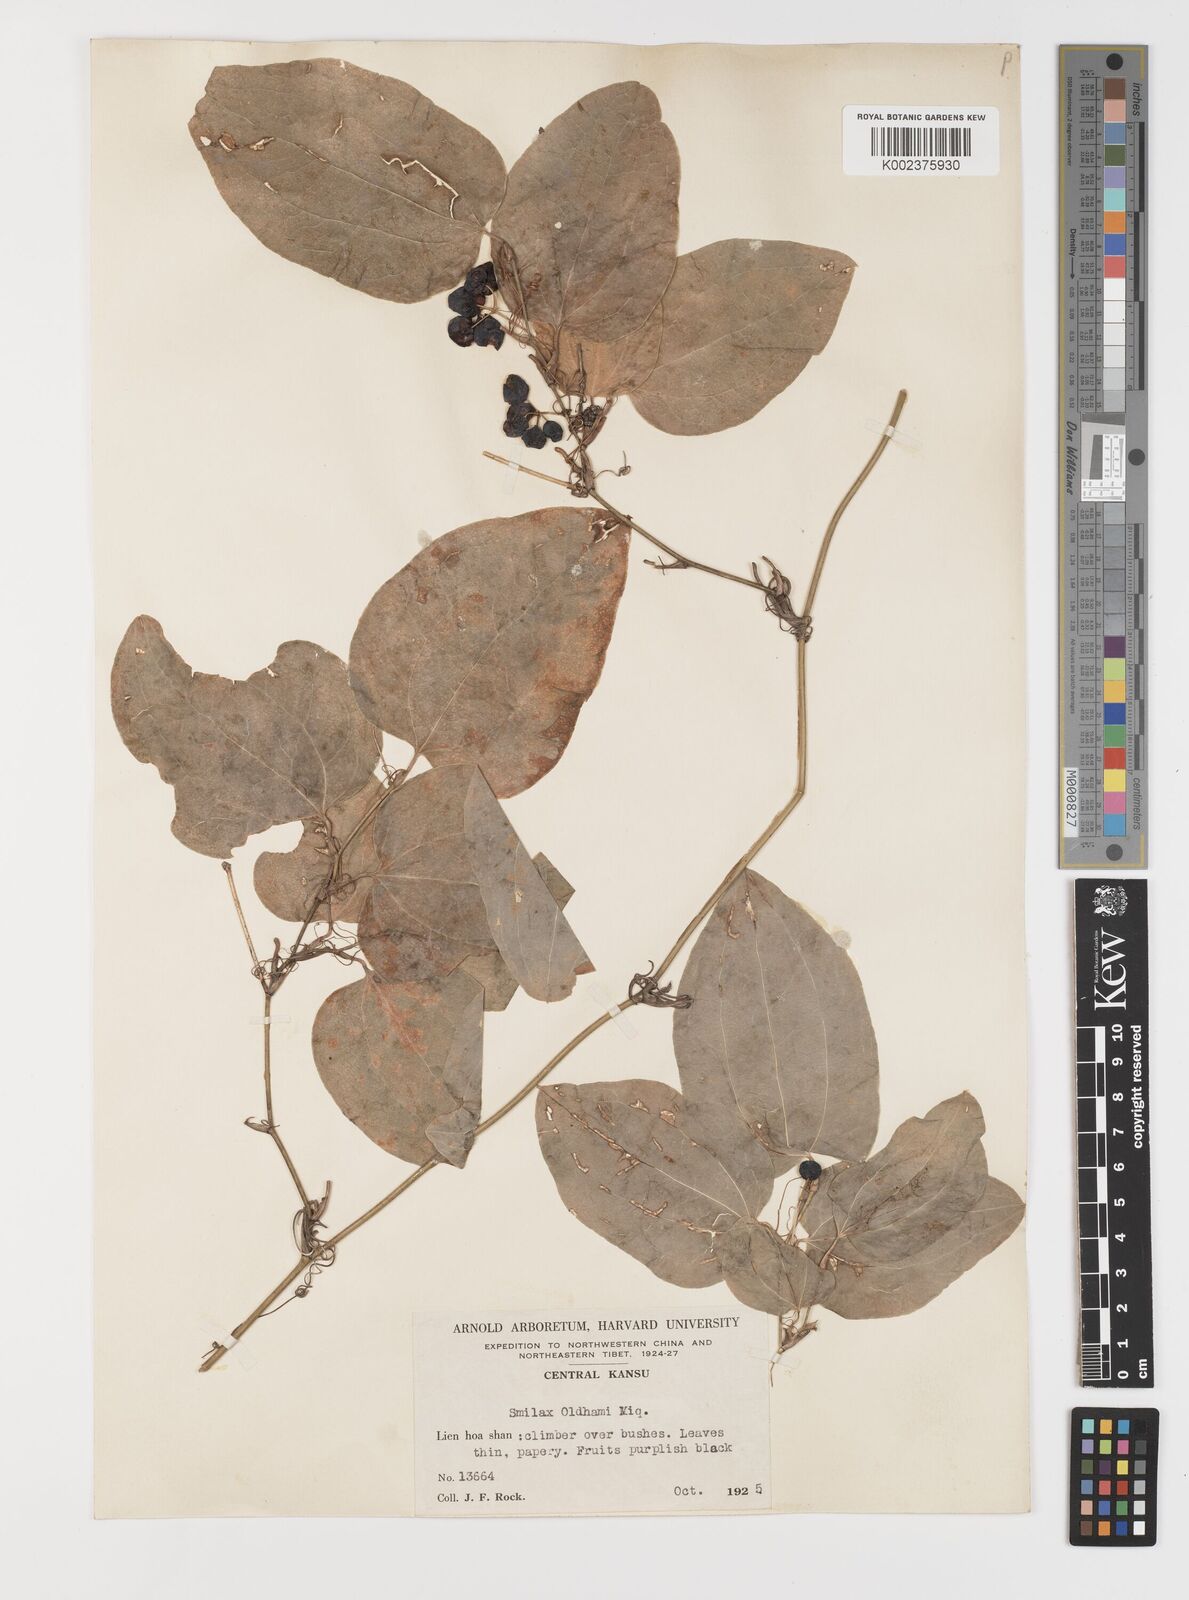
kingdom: Plantae
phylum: Tracheophyta
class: Liliopsida
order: Liliales
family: Smilacaceae
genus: Smilax
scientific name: Smilax menispermoidea
